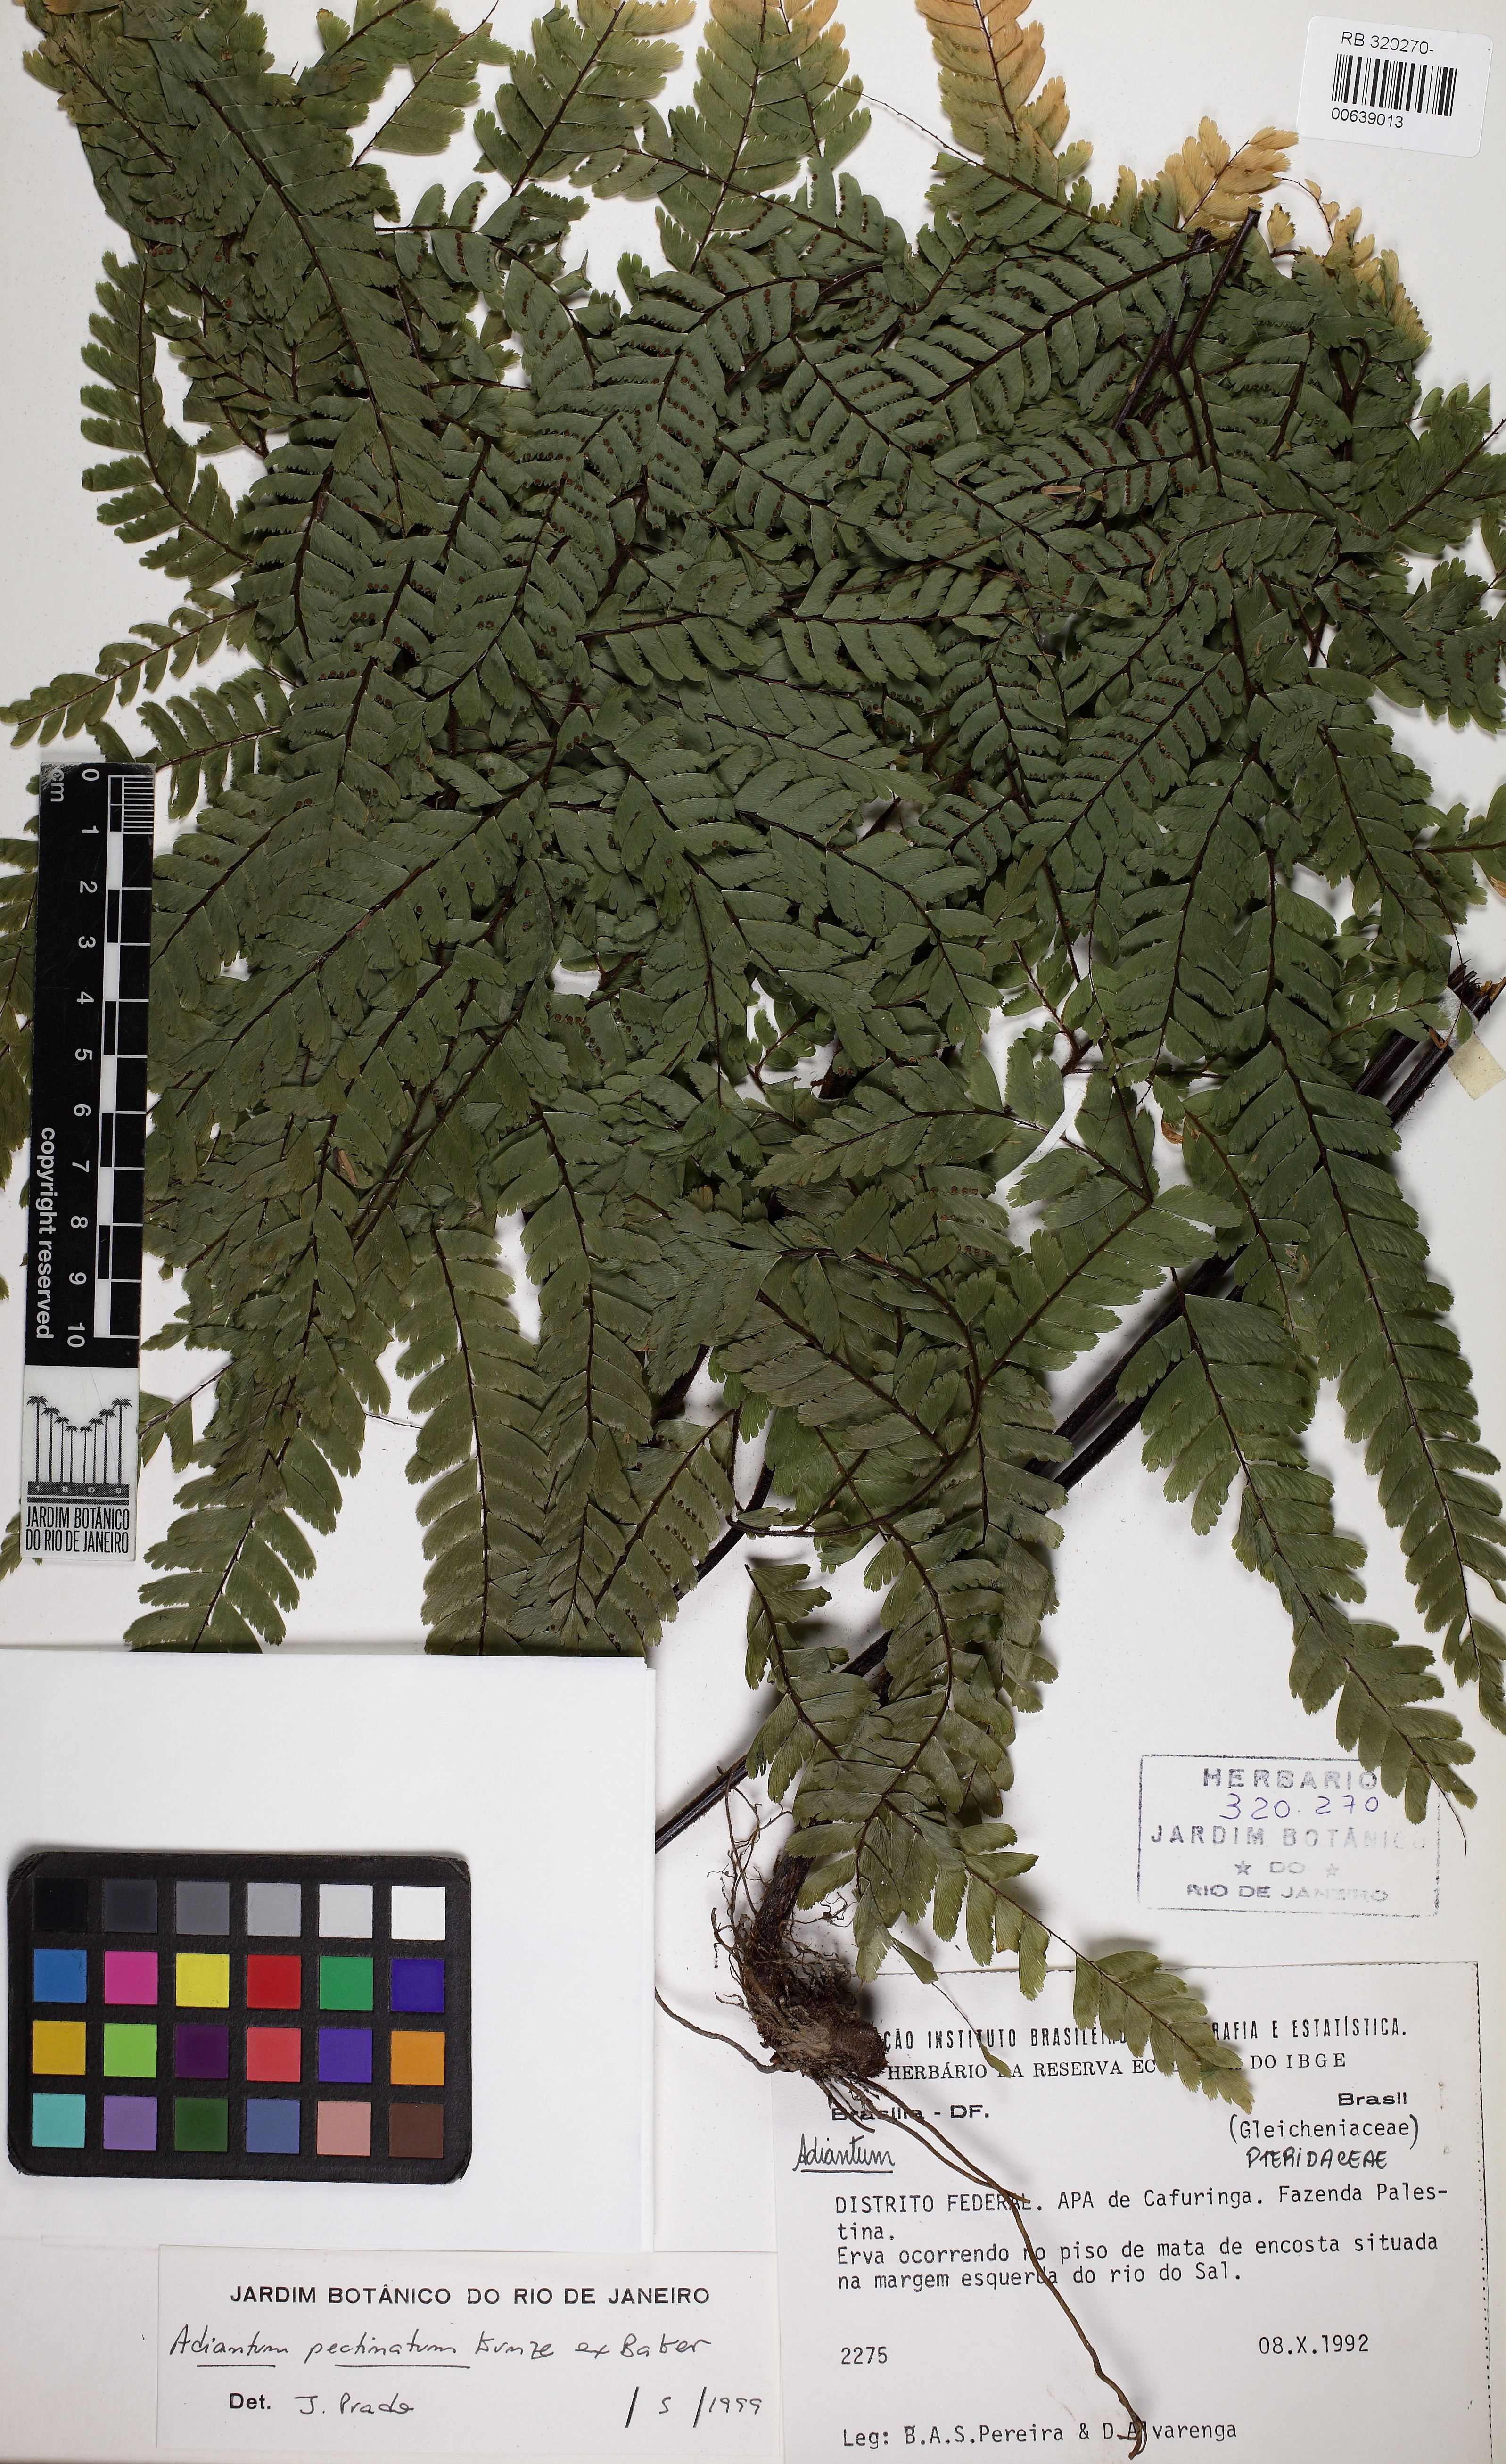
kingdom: Plantae
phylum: Tracheophyta
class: Polypodiopsida
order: Polypodiales
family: Pteridaceae
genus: Adiantum
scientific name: Adiantum pectinatum
